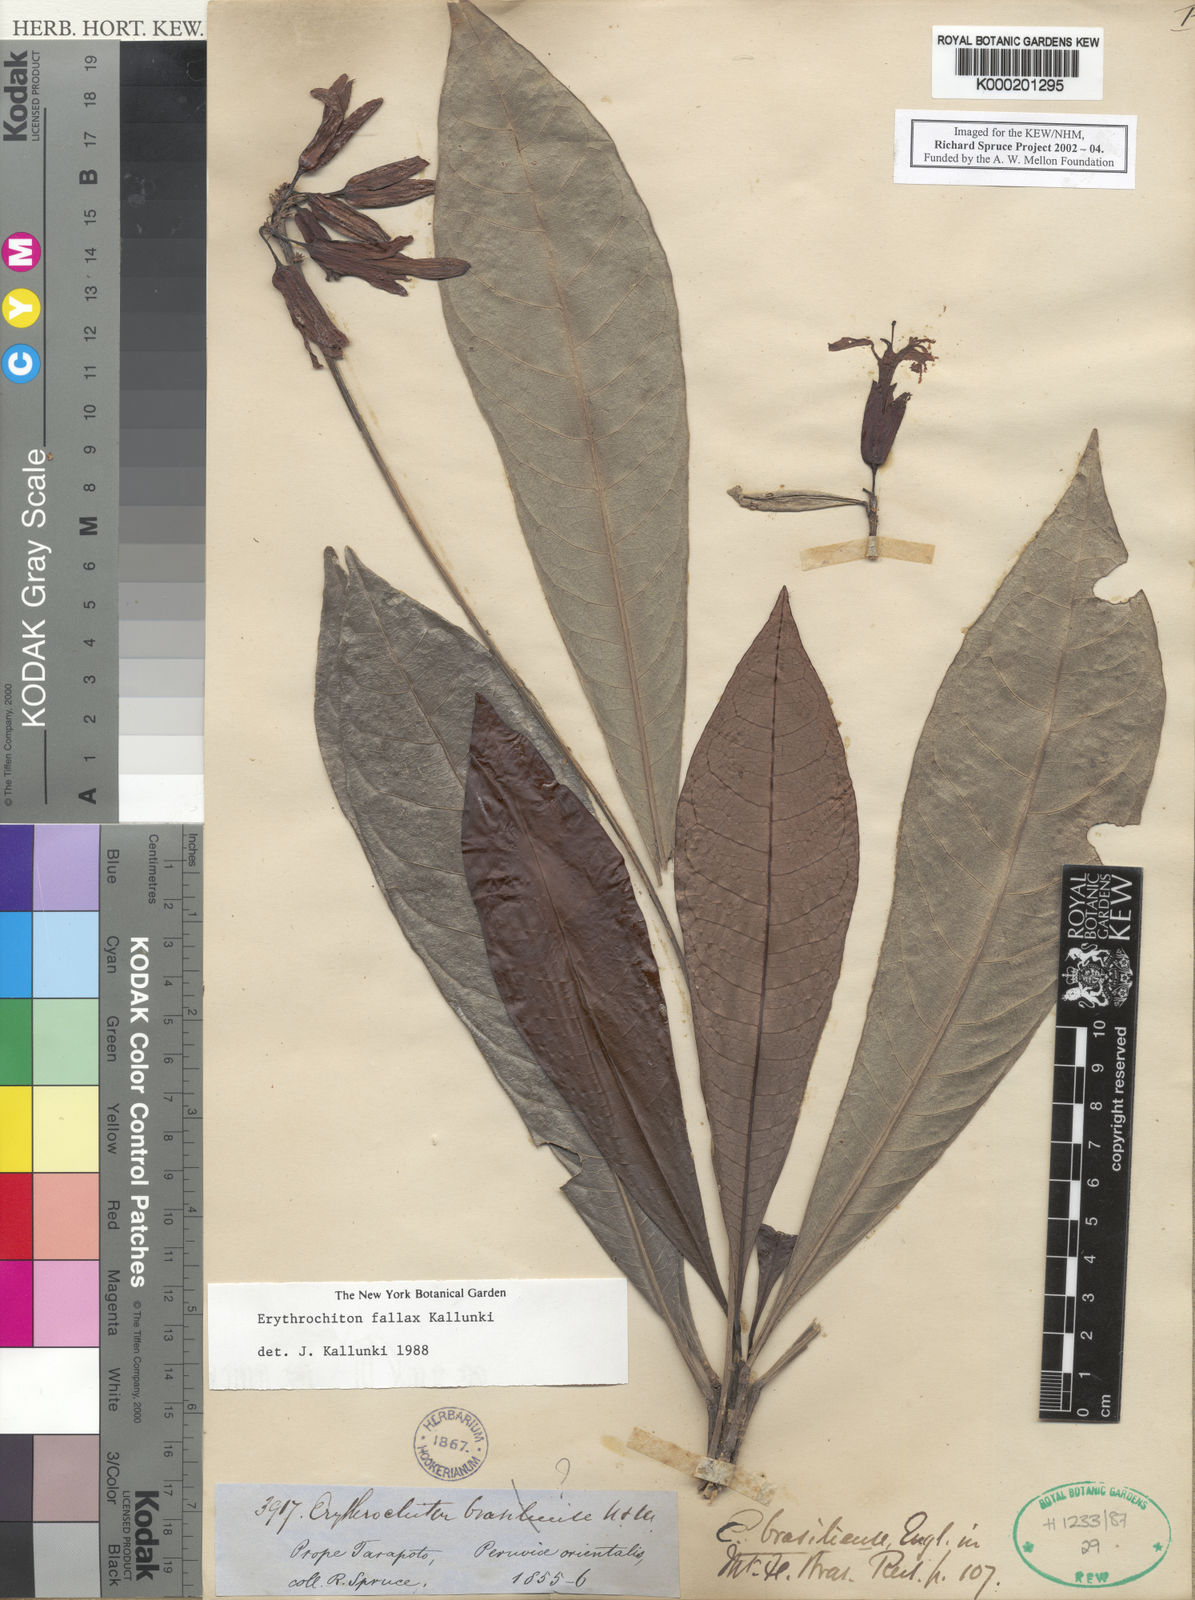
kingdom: Plantae
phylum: Tracheophyta
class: Magnoliopsida
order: Sapindales
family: Rutaceae
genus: Erythrochiton
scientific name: Erythrochiton fallax
